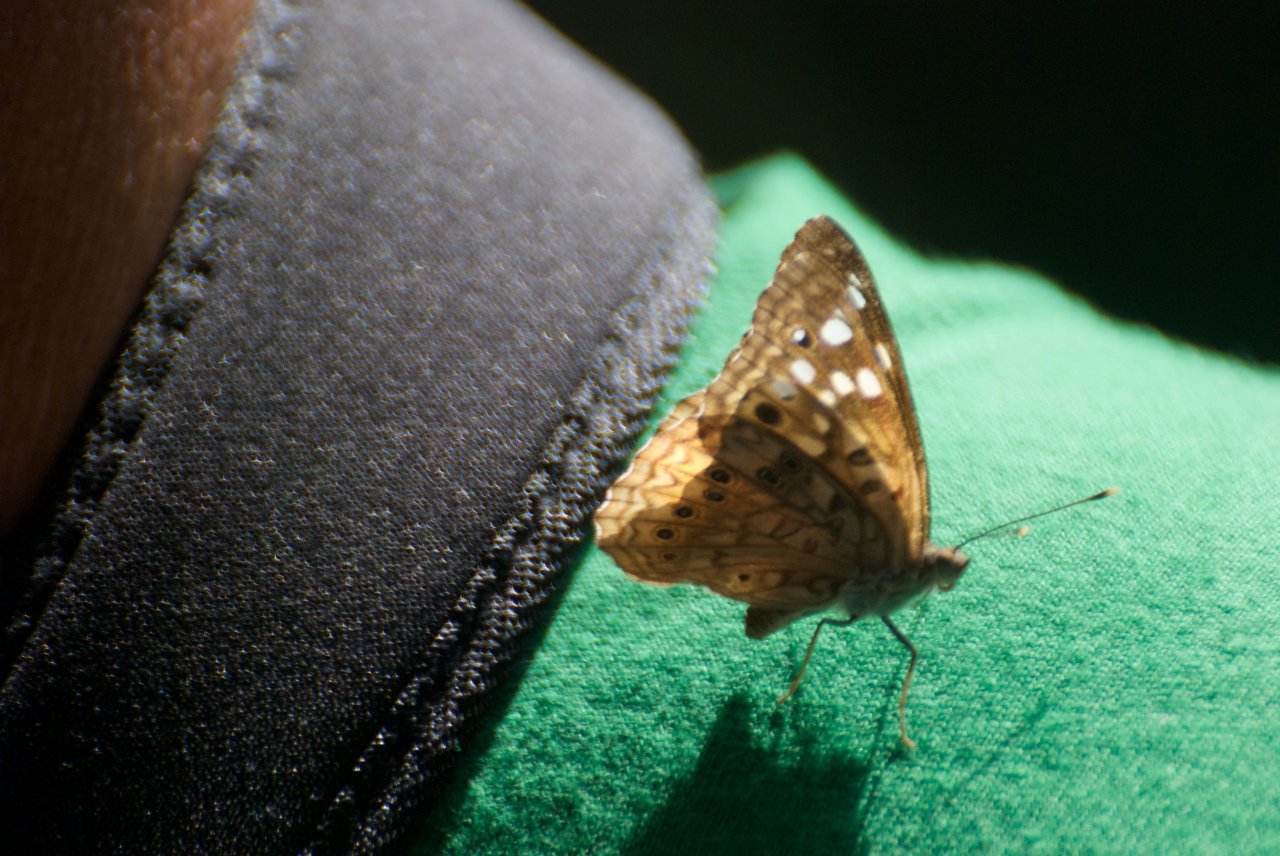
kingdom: Animalia
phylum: Arthropoda
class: Insecta
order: Lepidoptera
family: Nymphalidae
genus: Asterocampa
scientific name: Asterocampa celtis
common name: Hackberry Emperor
